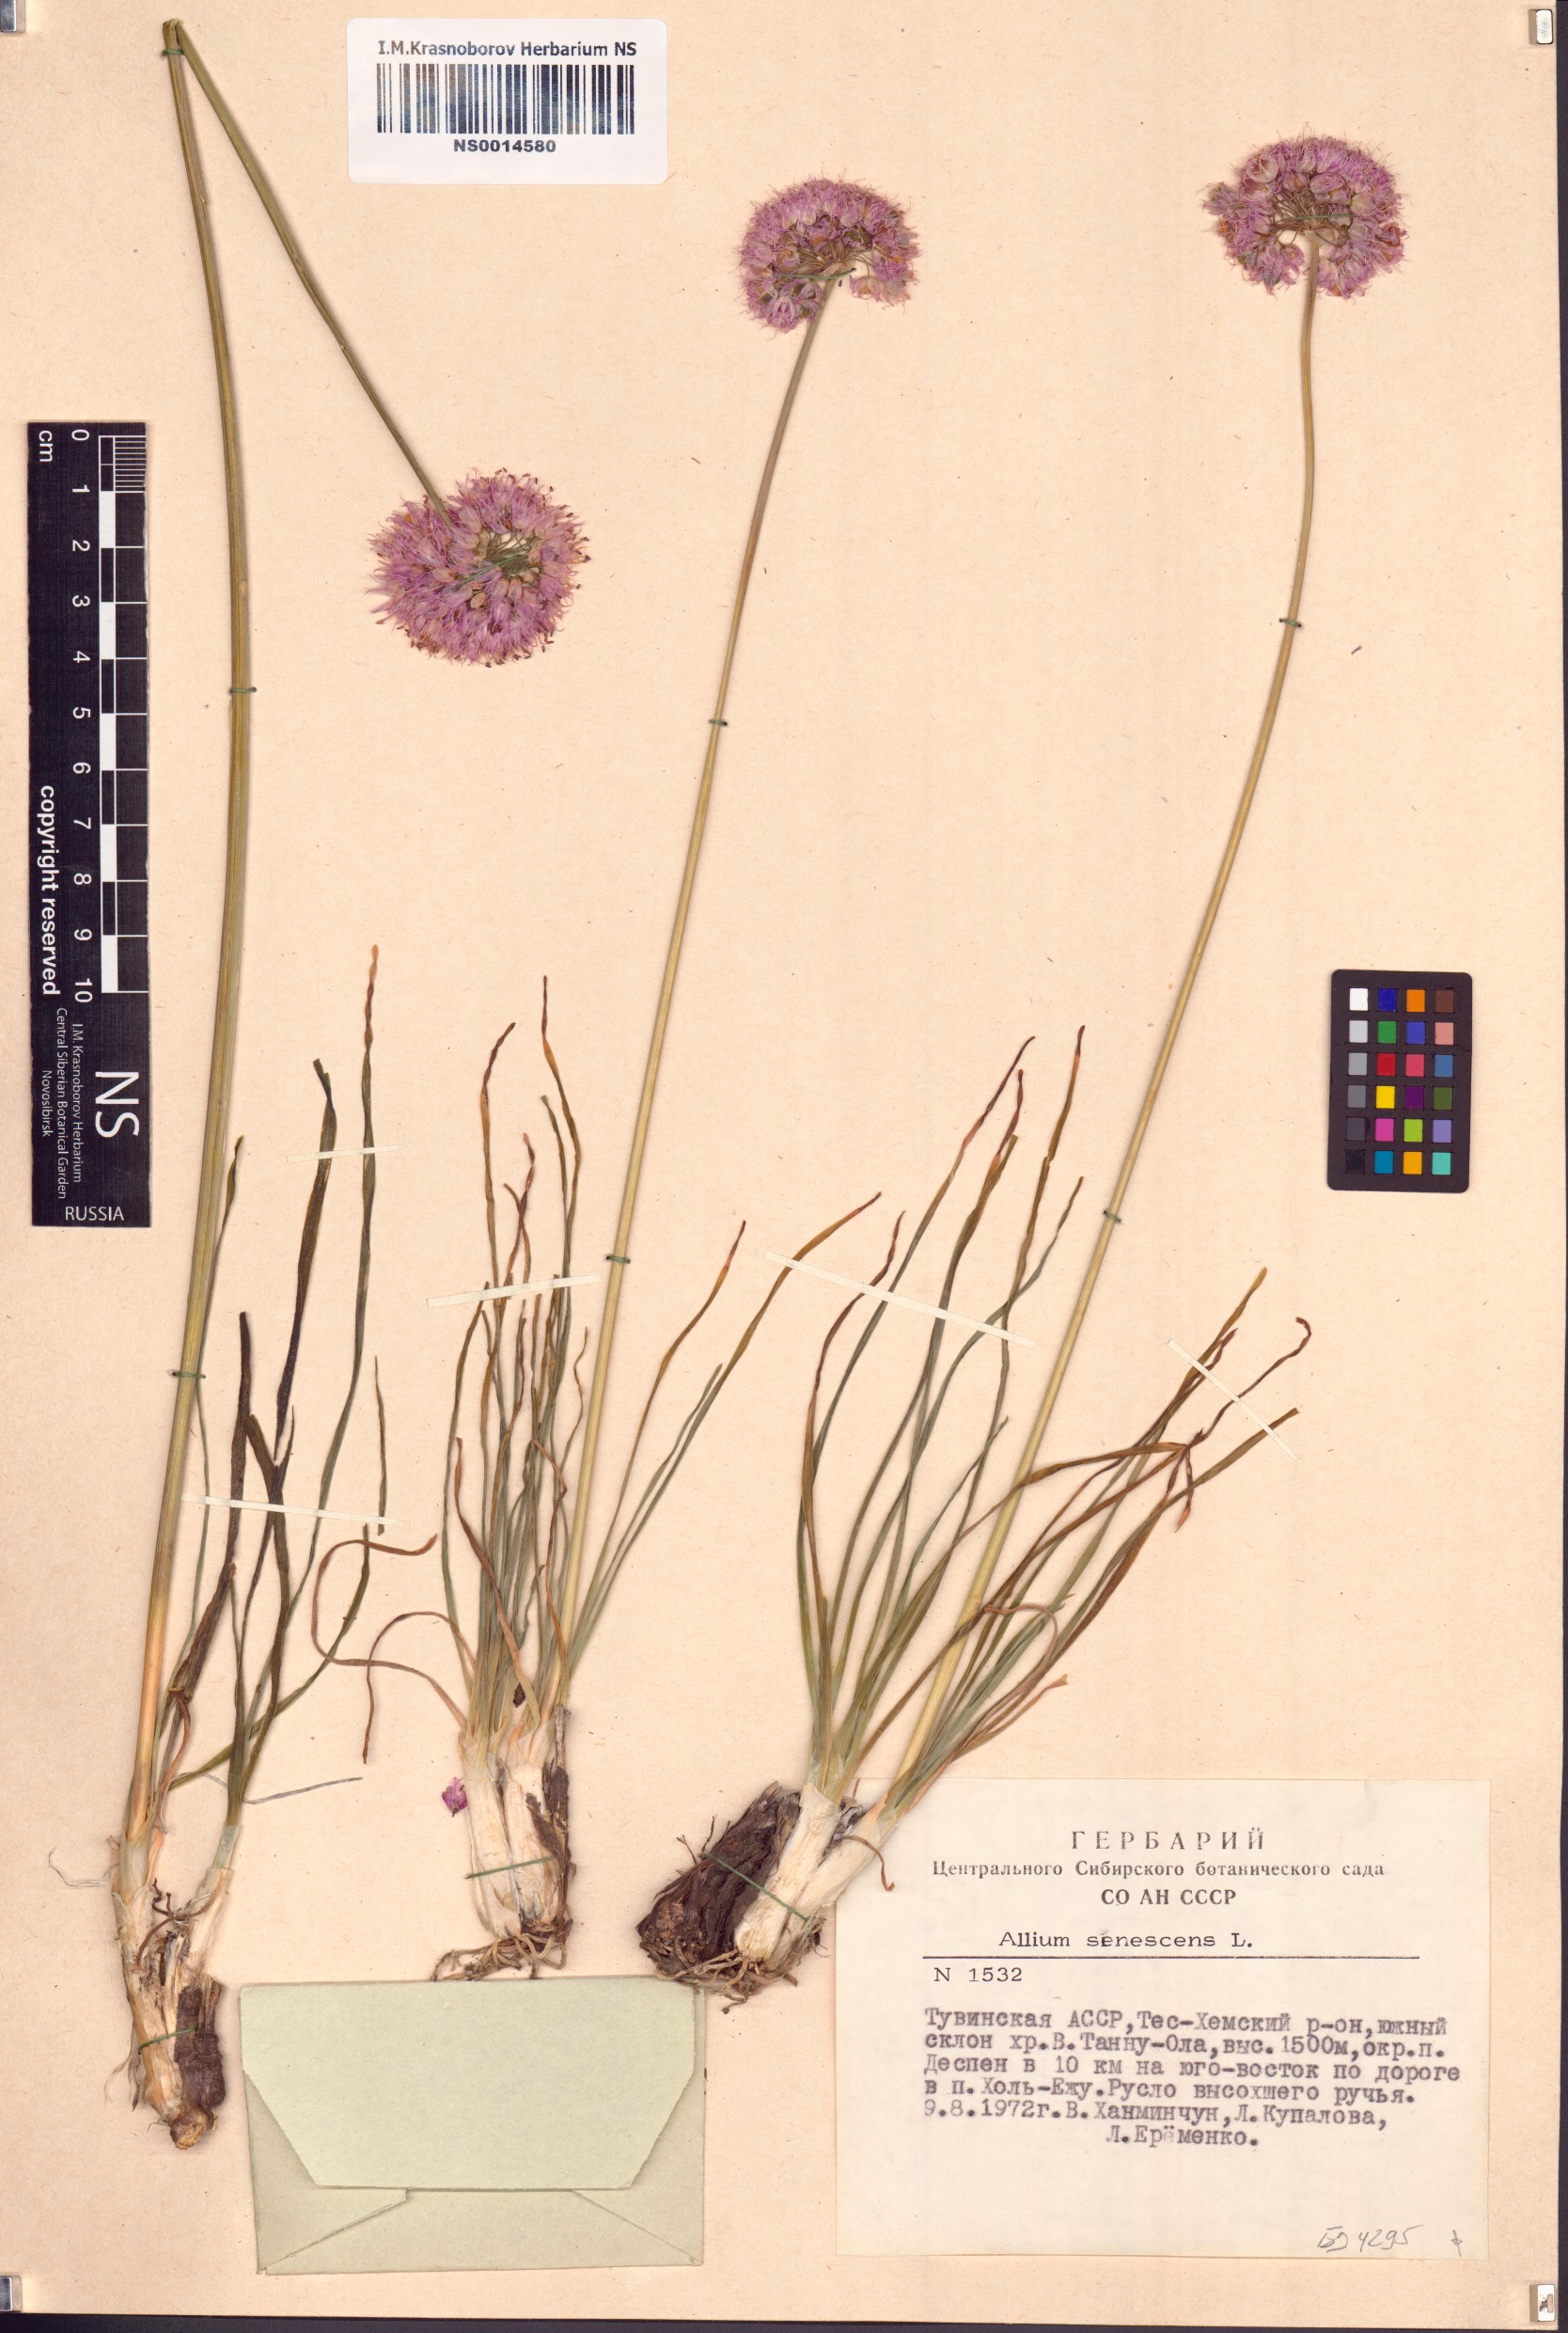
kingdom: Plantae
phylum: Tracheophyta
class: Liliopsida
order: Asparagales
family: Amaryllidaceae
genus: Allium
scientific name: Allium senescens
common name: German garlic
